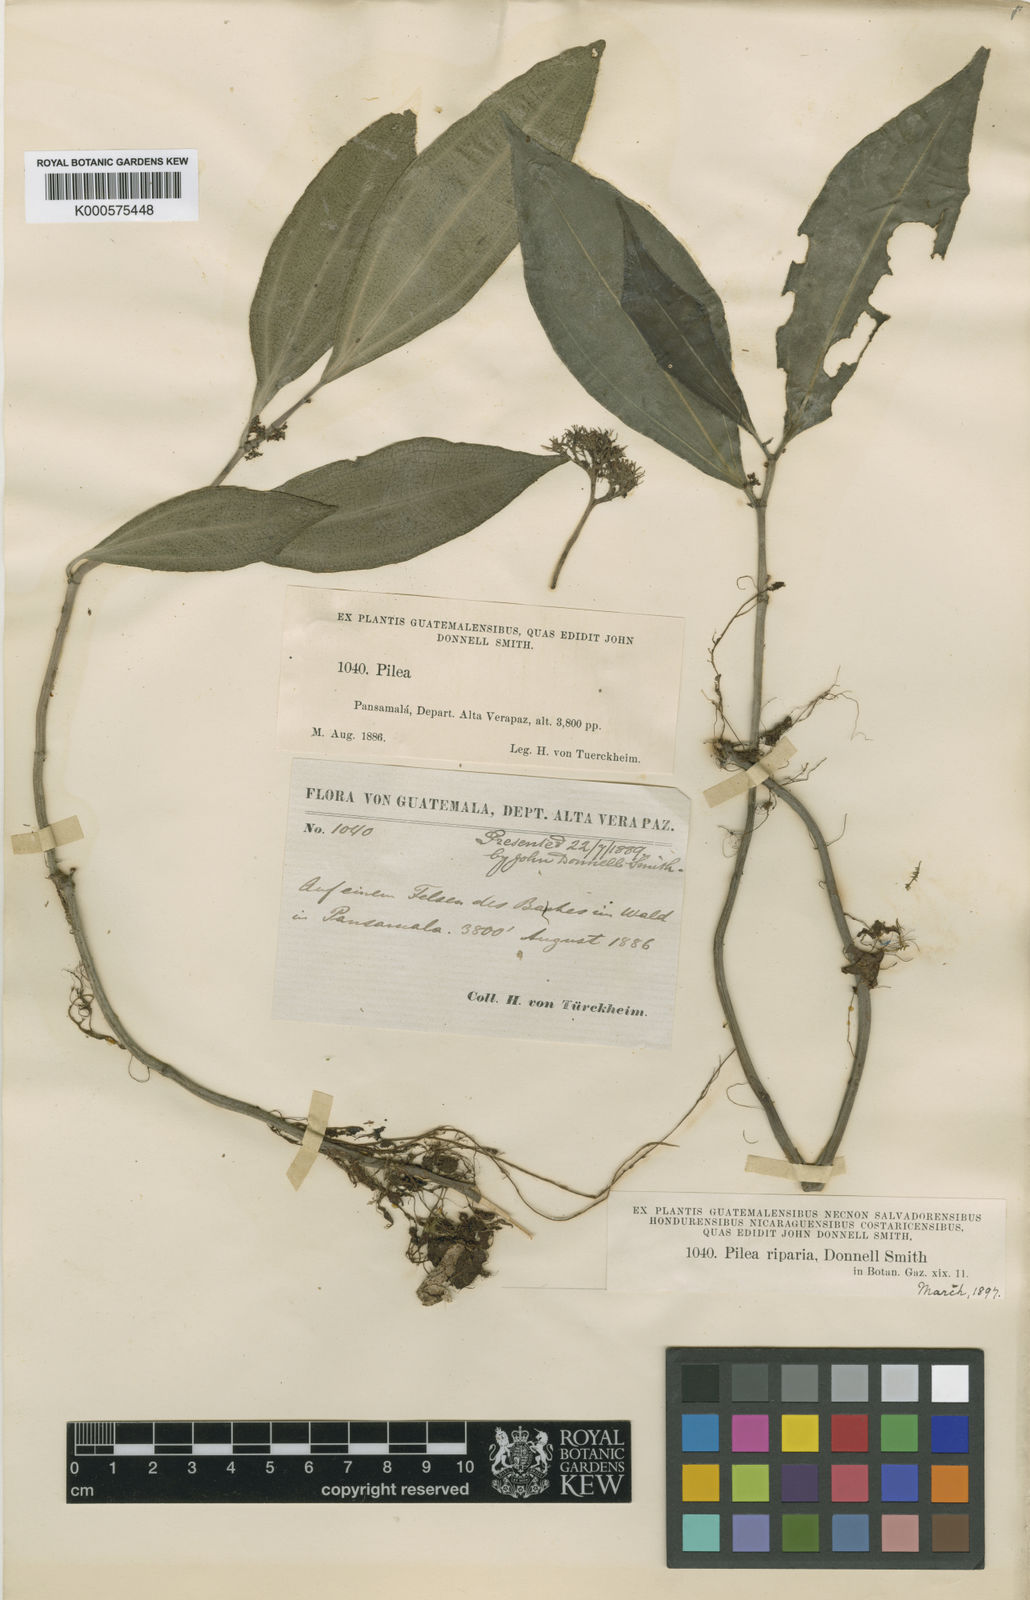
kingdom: Plantae
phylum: Tracheophyta
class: Magnoliopsida
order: Rosales
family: Urticaceae
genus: Pilea
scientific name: Pilea riparia
